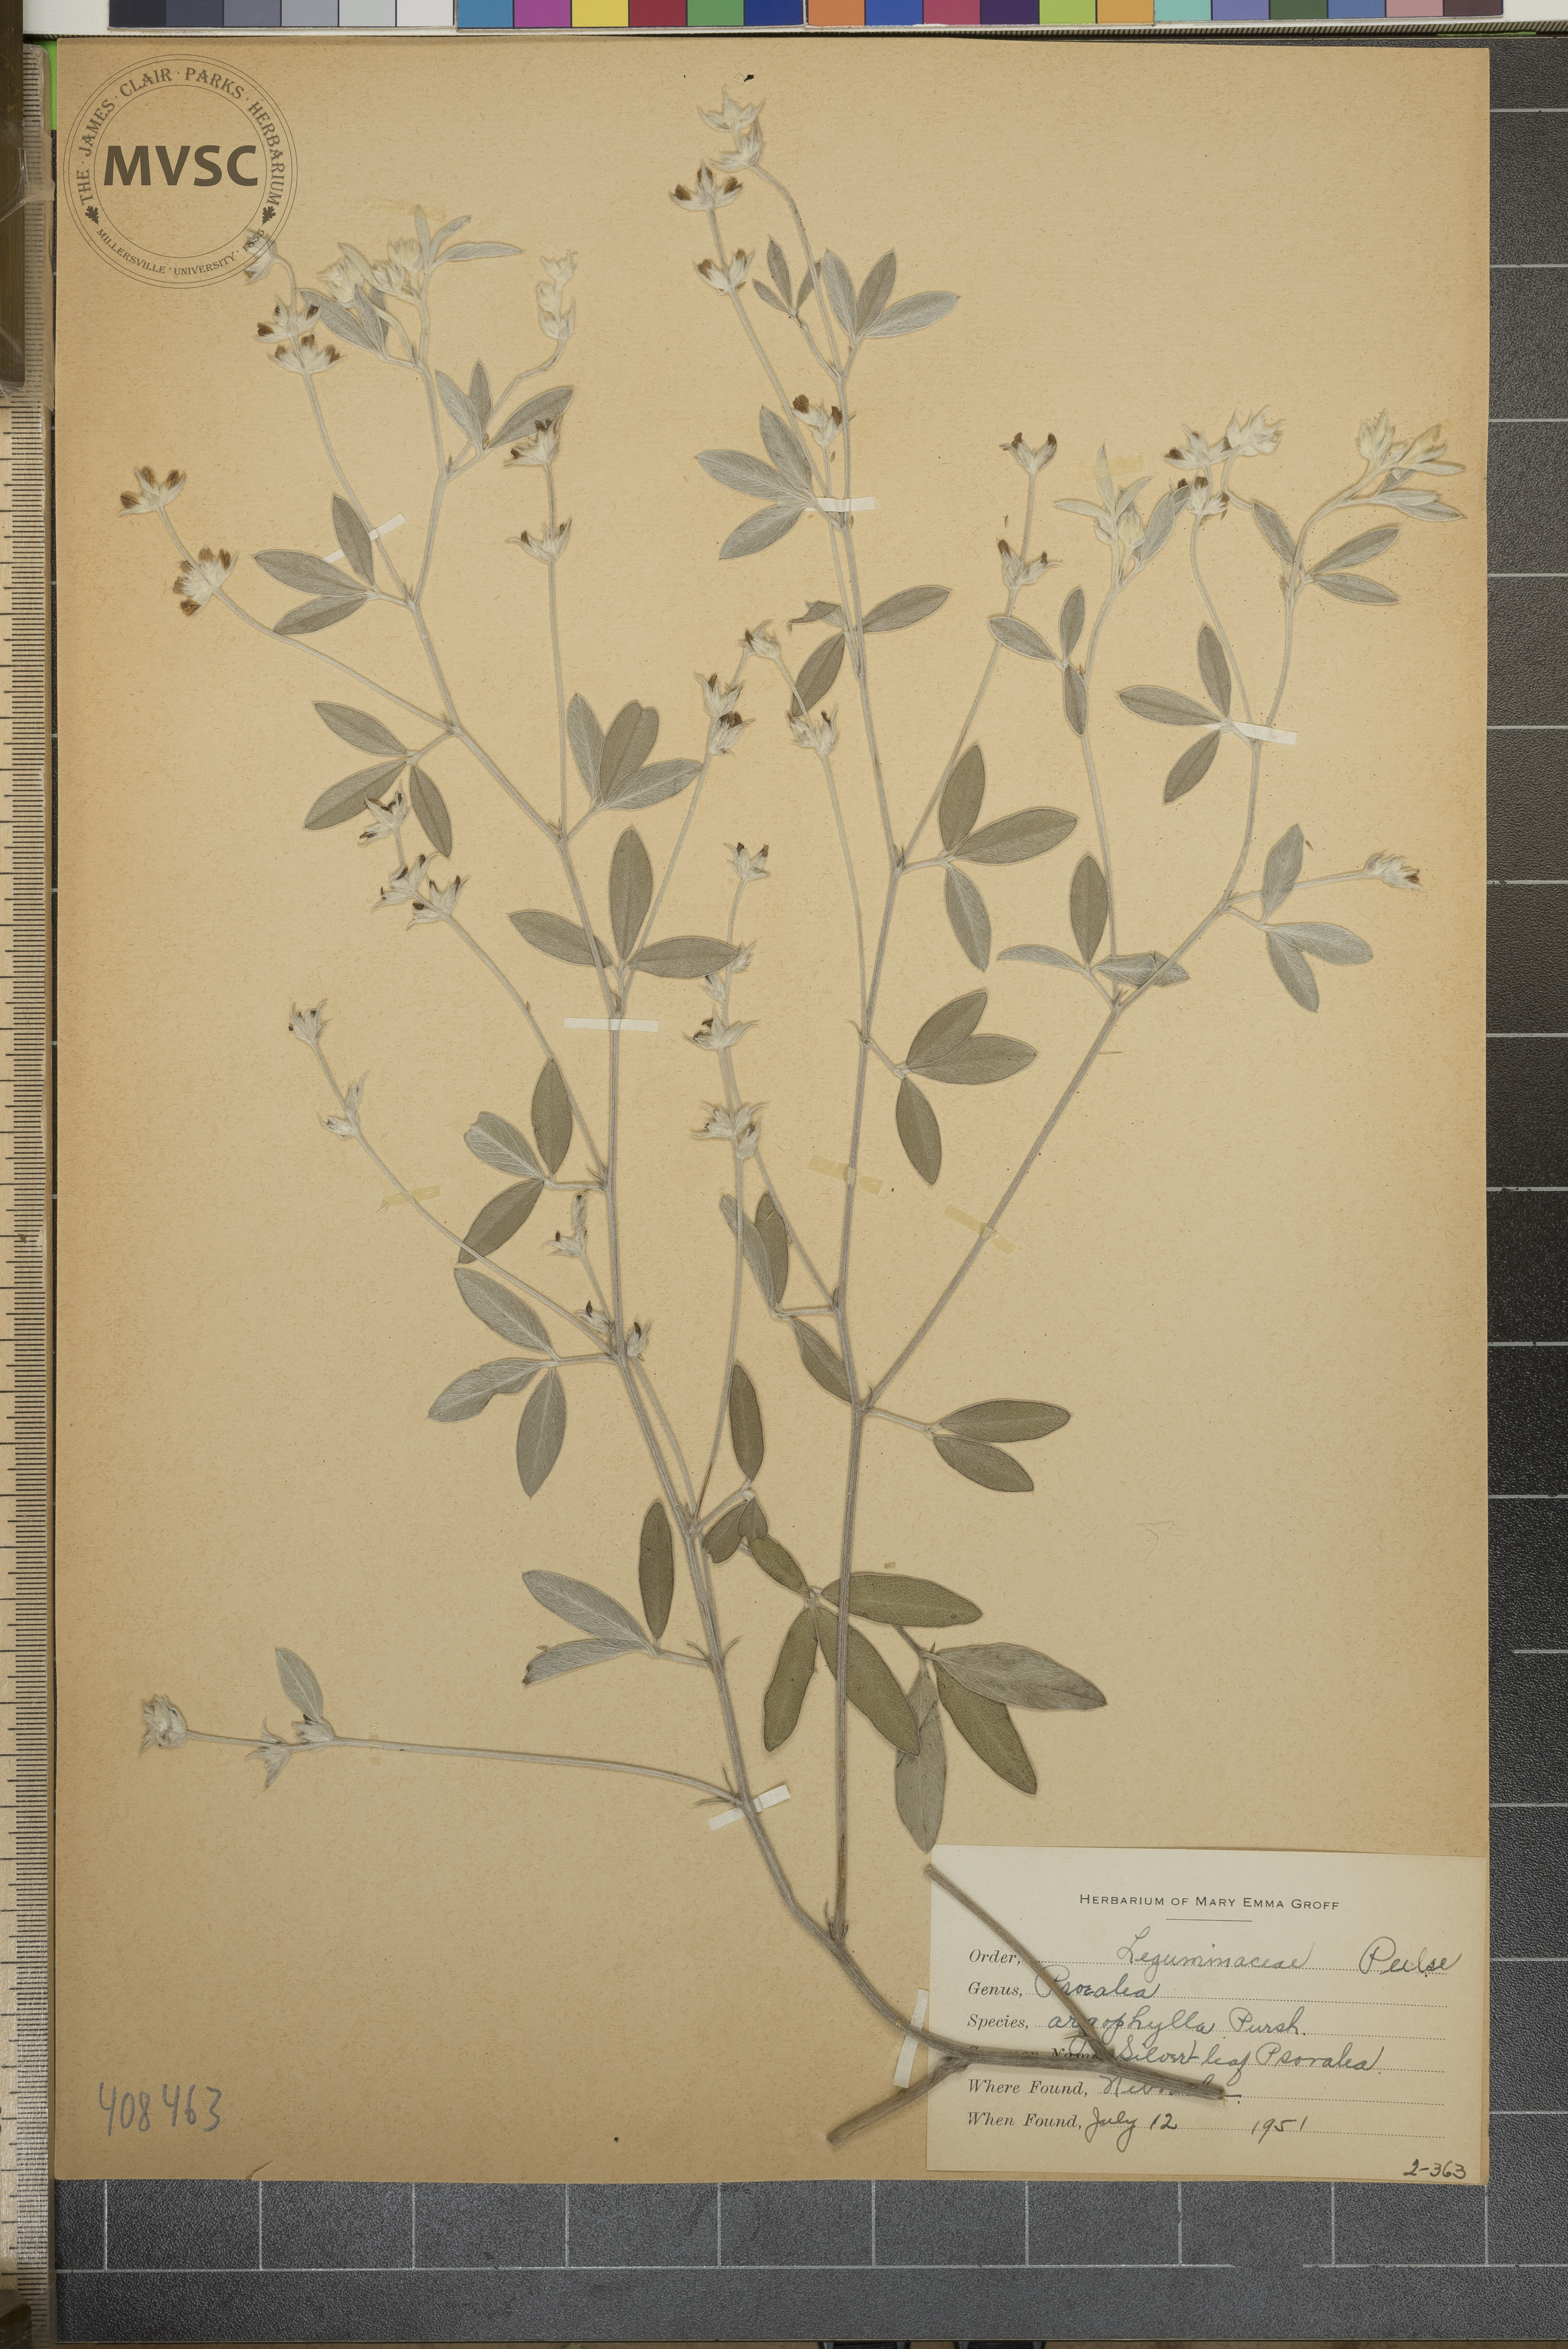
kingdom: Plantae
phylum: Tracheophyta
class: Magnoliopsida
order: Fabales
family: Fabaceae
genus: Pediomelum
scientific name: Pediomelum argophyllum
